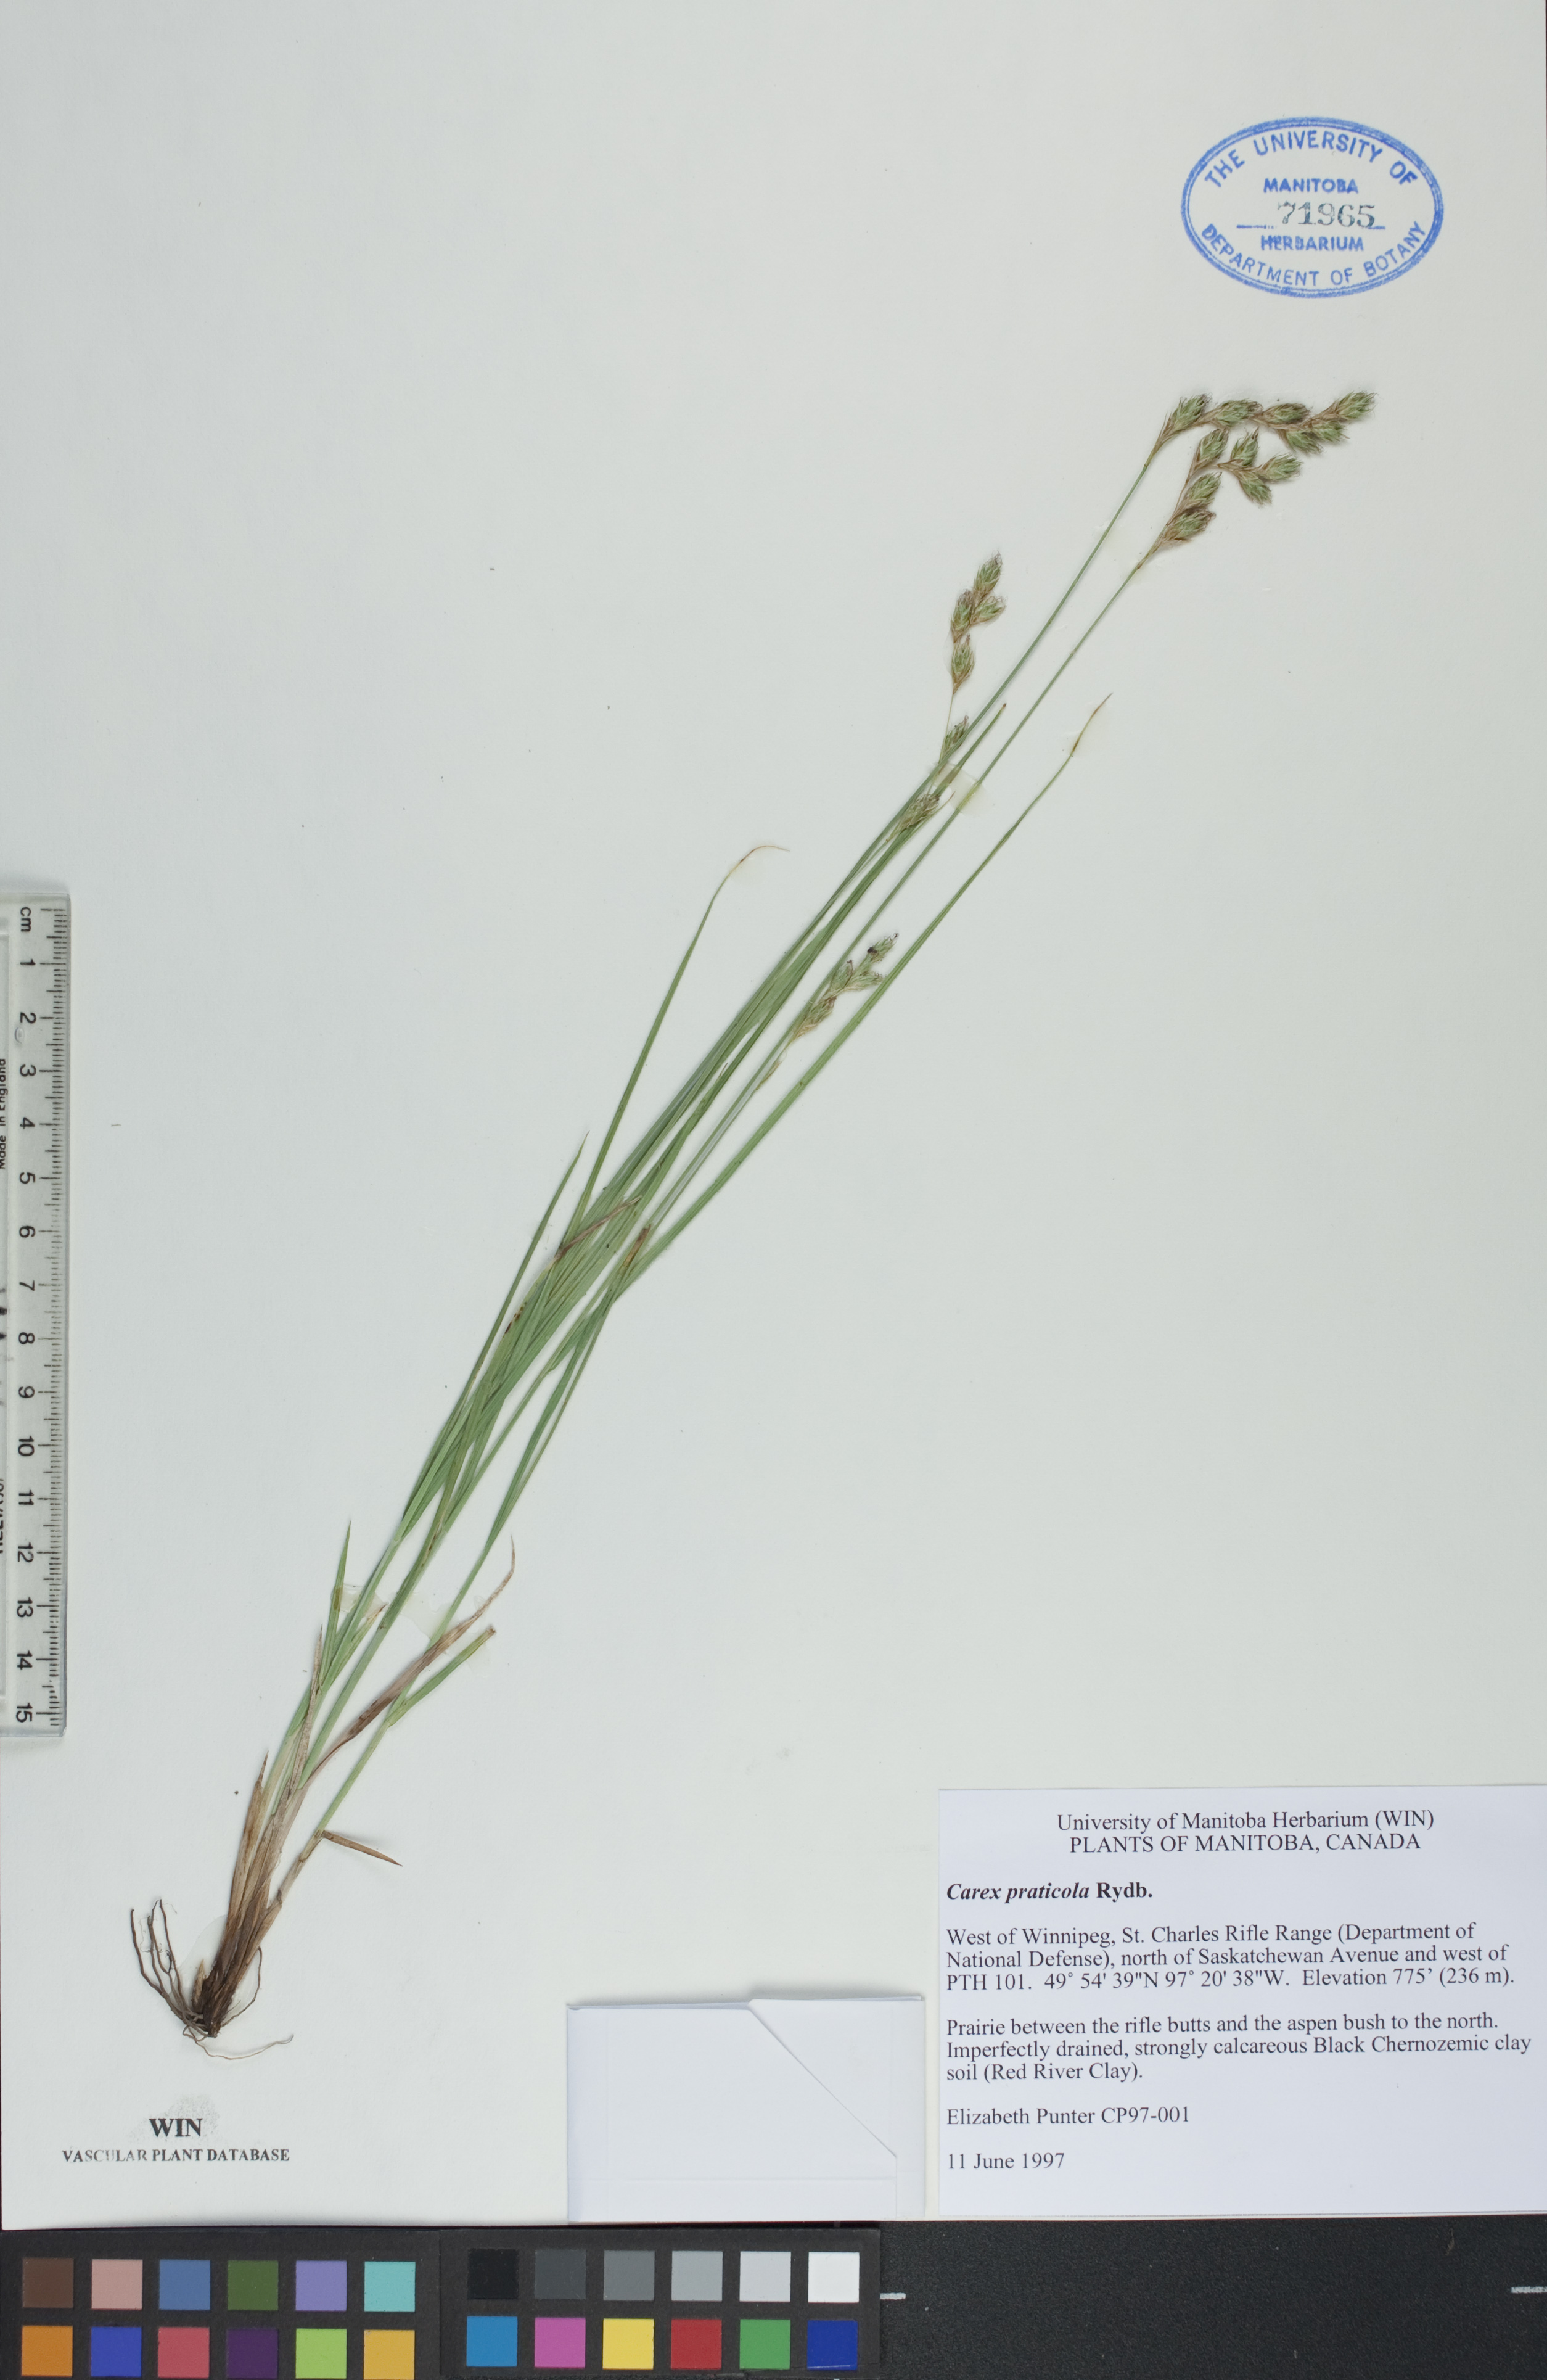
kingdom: Plantae
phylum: Tracheophyta
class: Liliopsida
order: Poales
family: Cyperaceae
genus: Carex
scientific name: Carex praticola
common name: Large-fruited oval sedge
